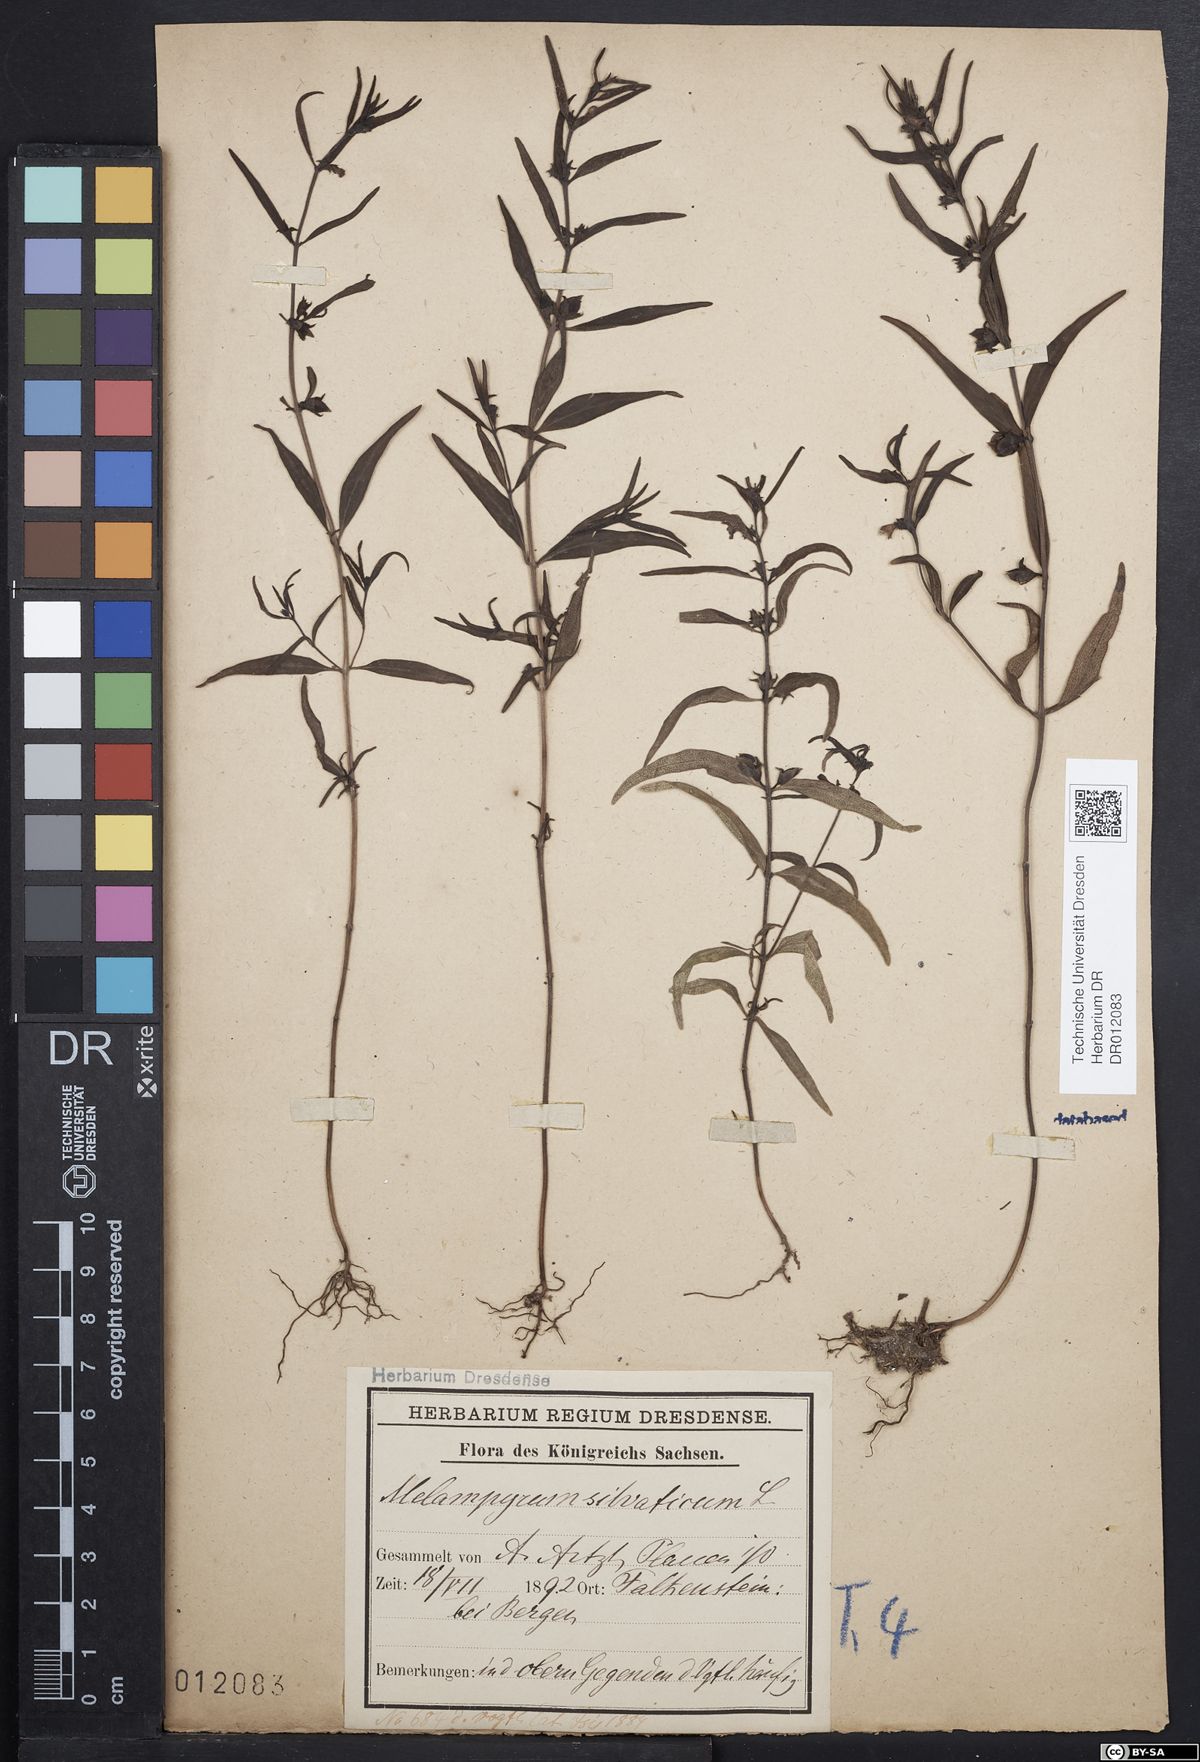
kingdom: Plantae
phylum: Tracheophyta
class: Magnoliopsida
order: Lamiales
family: Orobanchaceae
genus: Melampyrum
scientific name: Melampyrum sylvaticum
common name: Small cow-wheat
